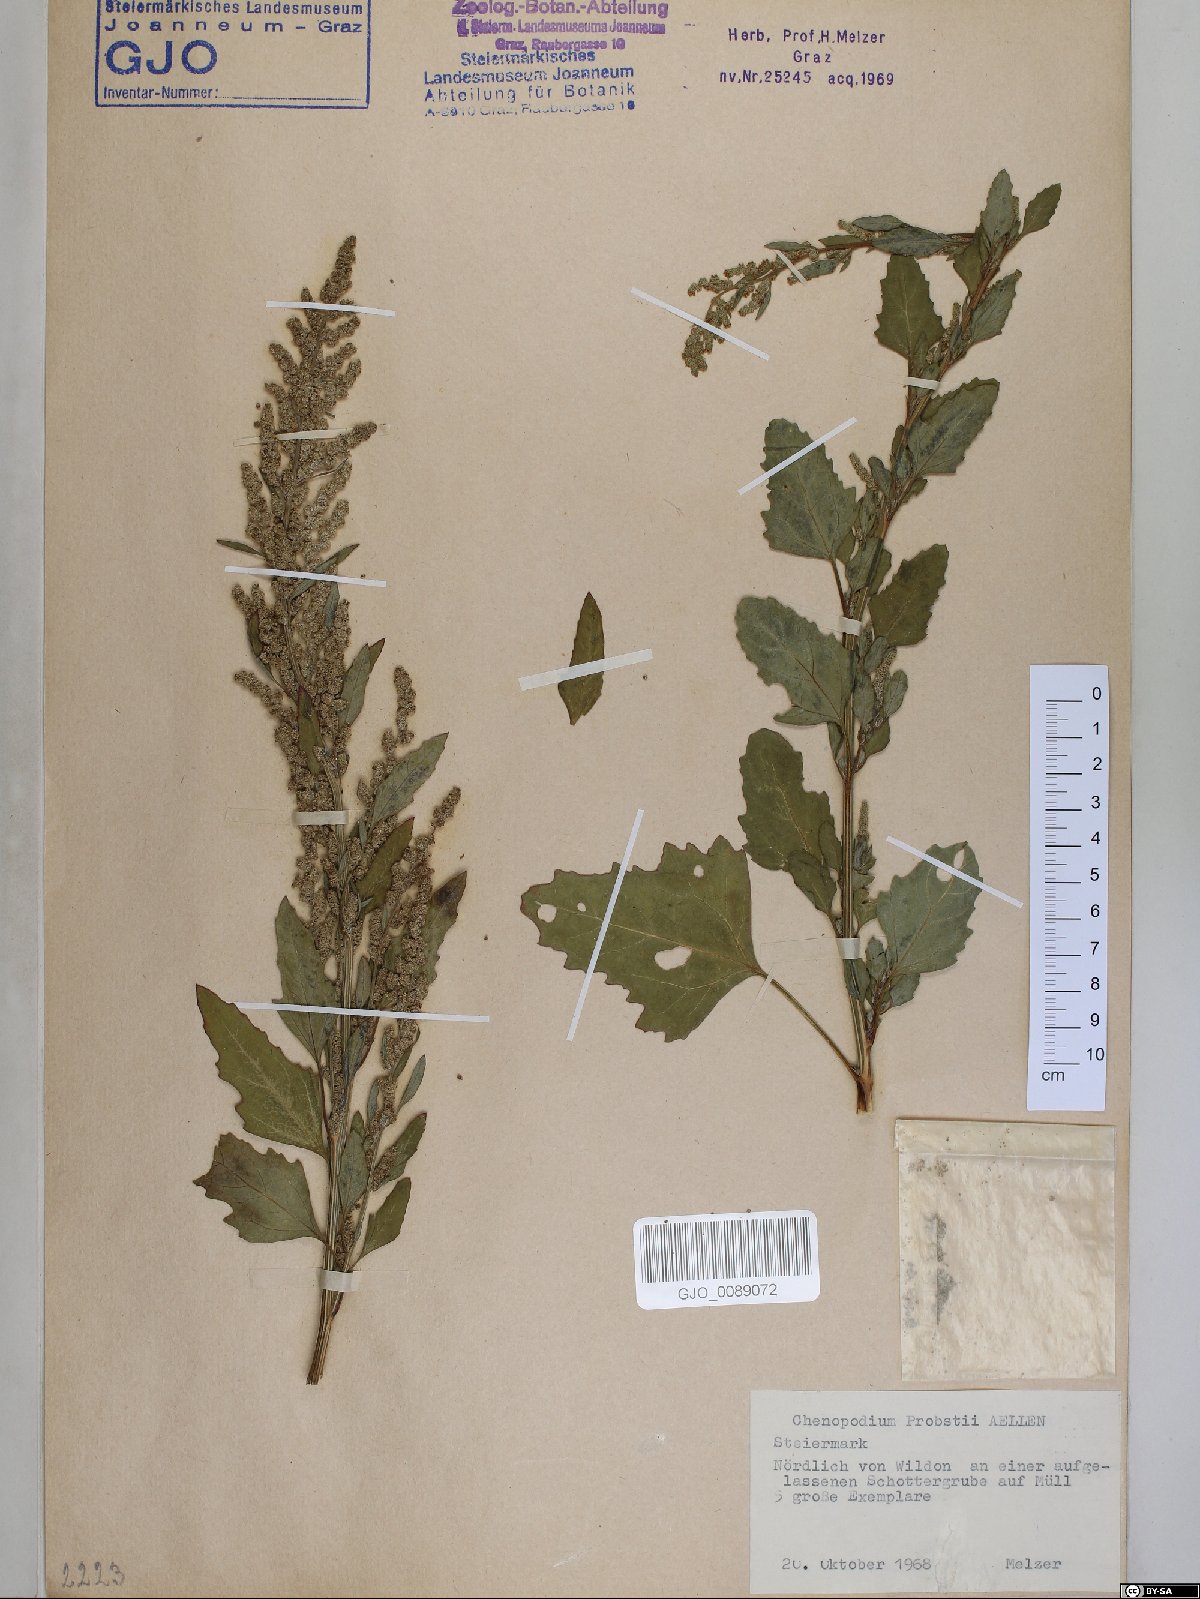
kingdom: Plantae
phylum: Tracheophyta
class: Magnoliopsida
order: Caryophyllales
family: Amaranthaceae
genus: Chenopodium
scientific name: Chenopodium probstii
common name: Probst's goosefoot
